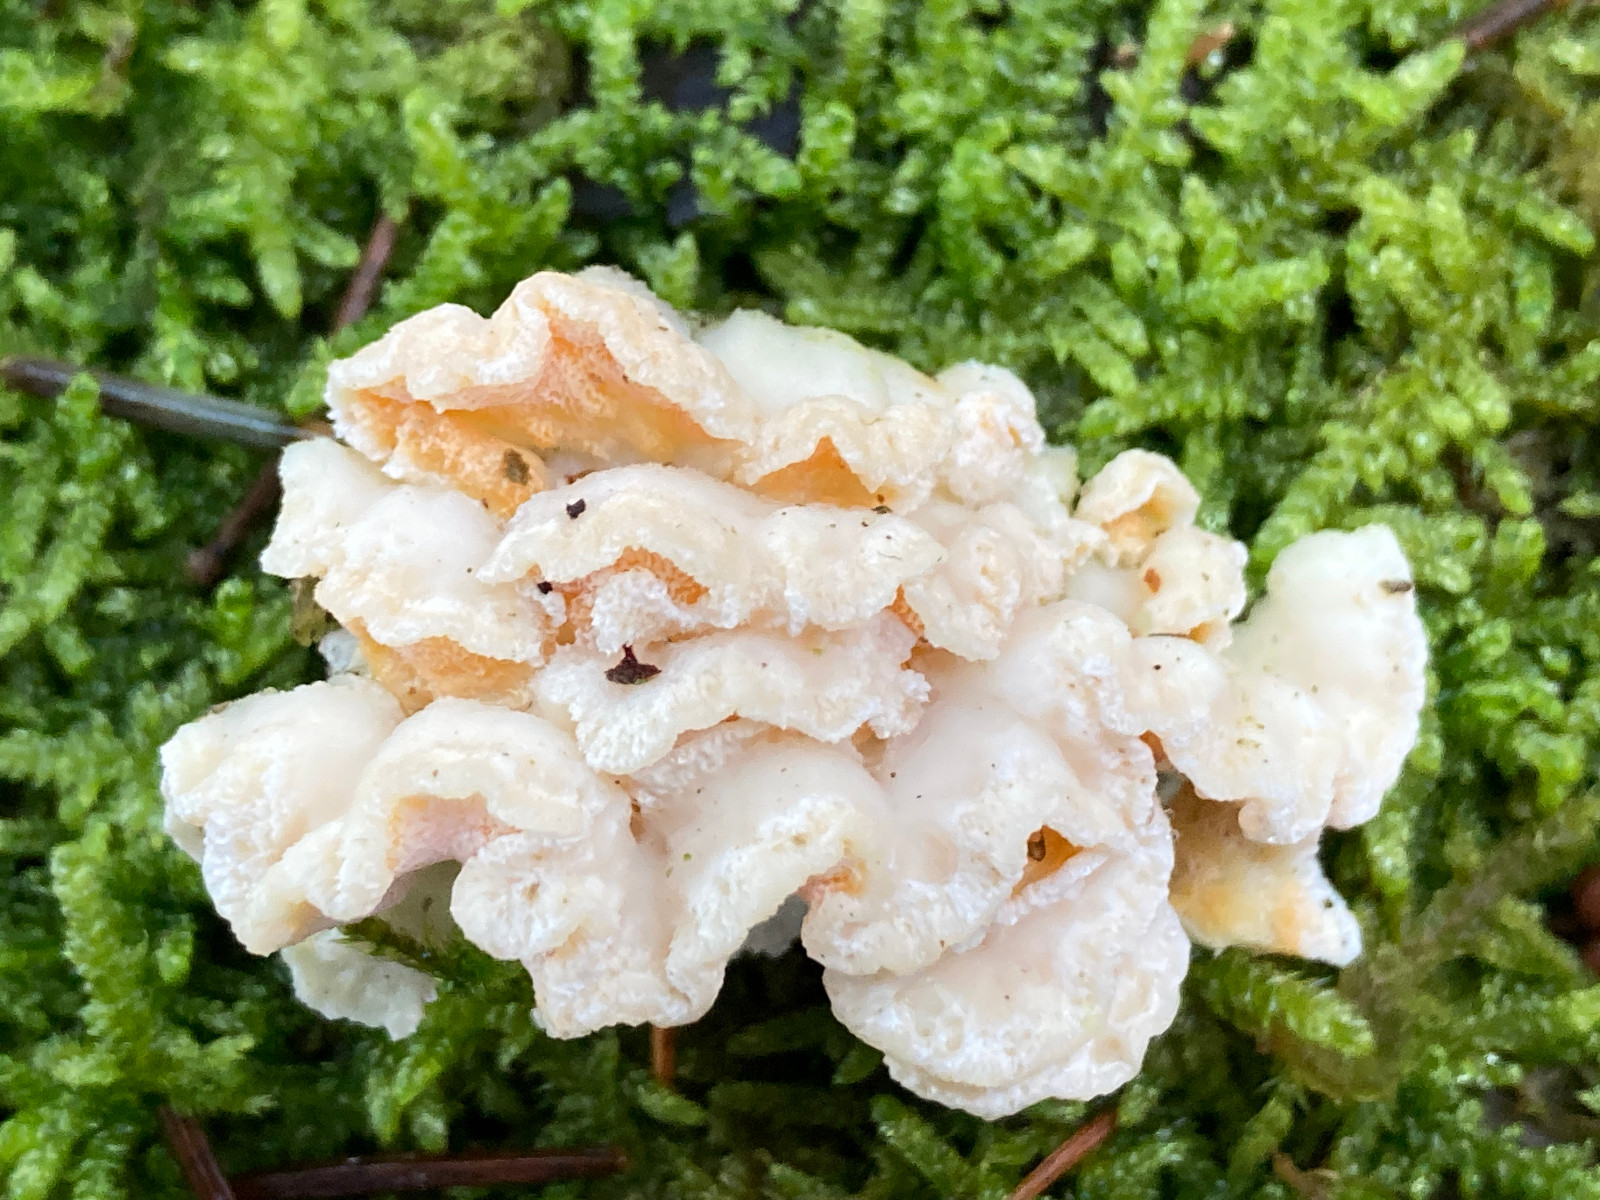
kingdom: Fungi
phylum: Basidiomycota
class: Agaricomycetes
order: Polyporales
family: Incrustoporiaceae
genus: Skeletocutis
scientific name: Skeletocutis amorpha
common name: orange krystalporesvamp
